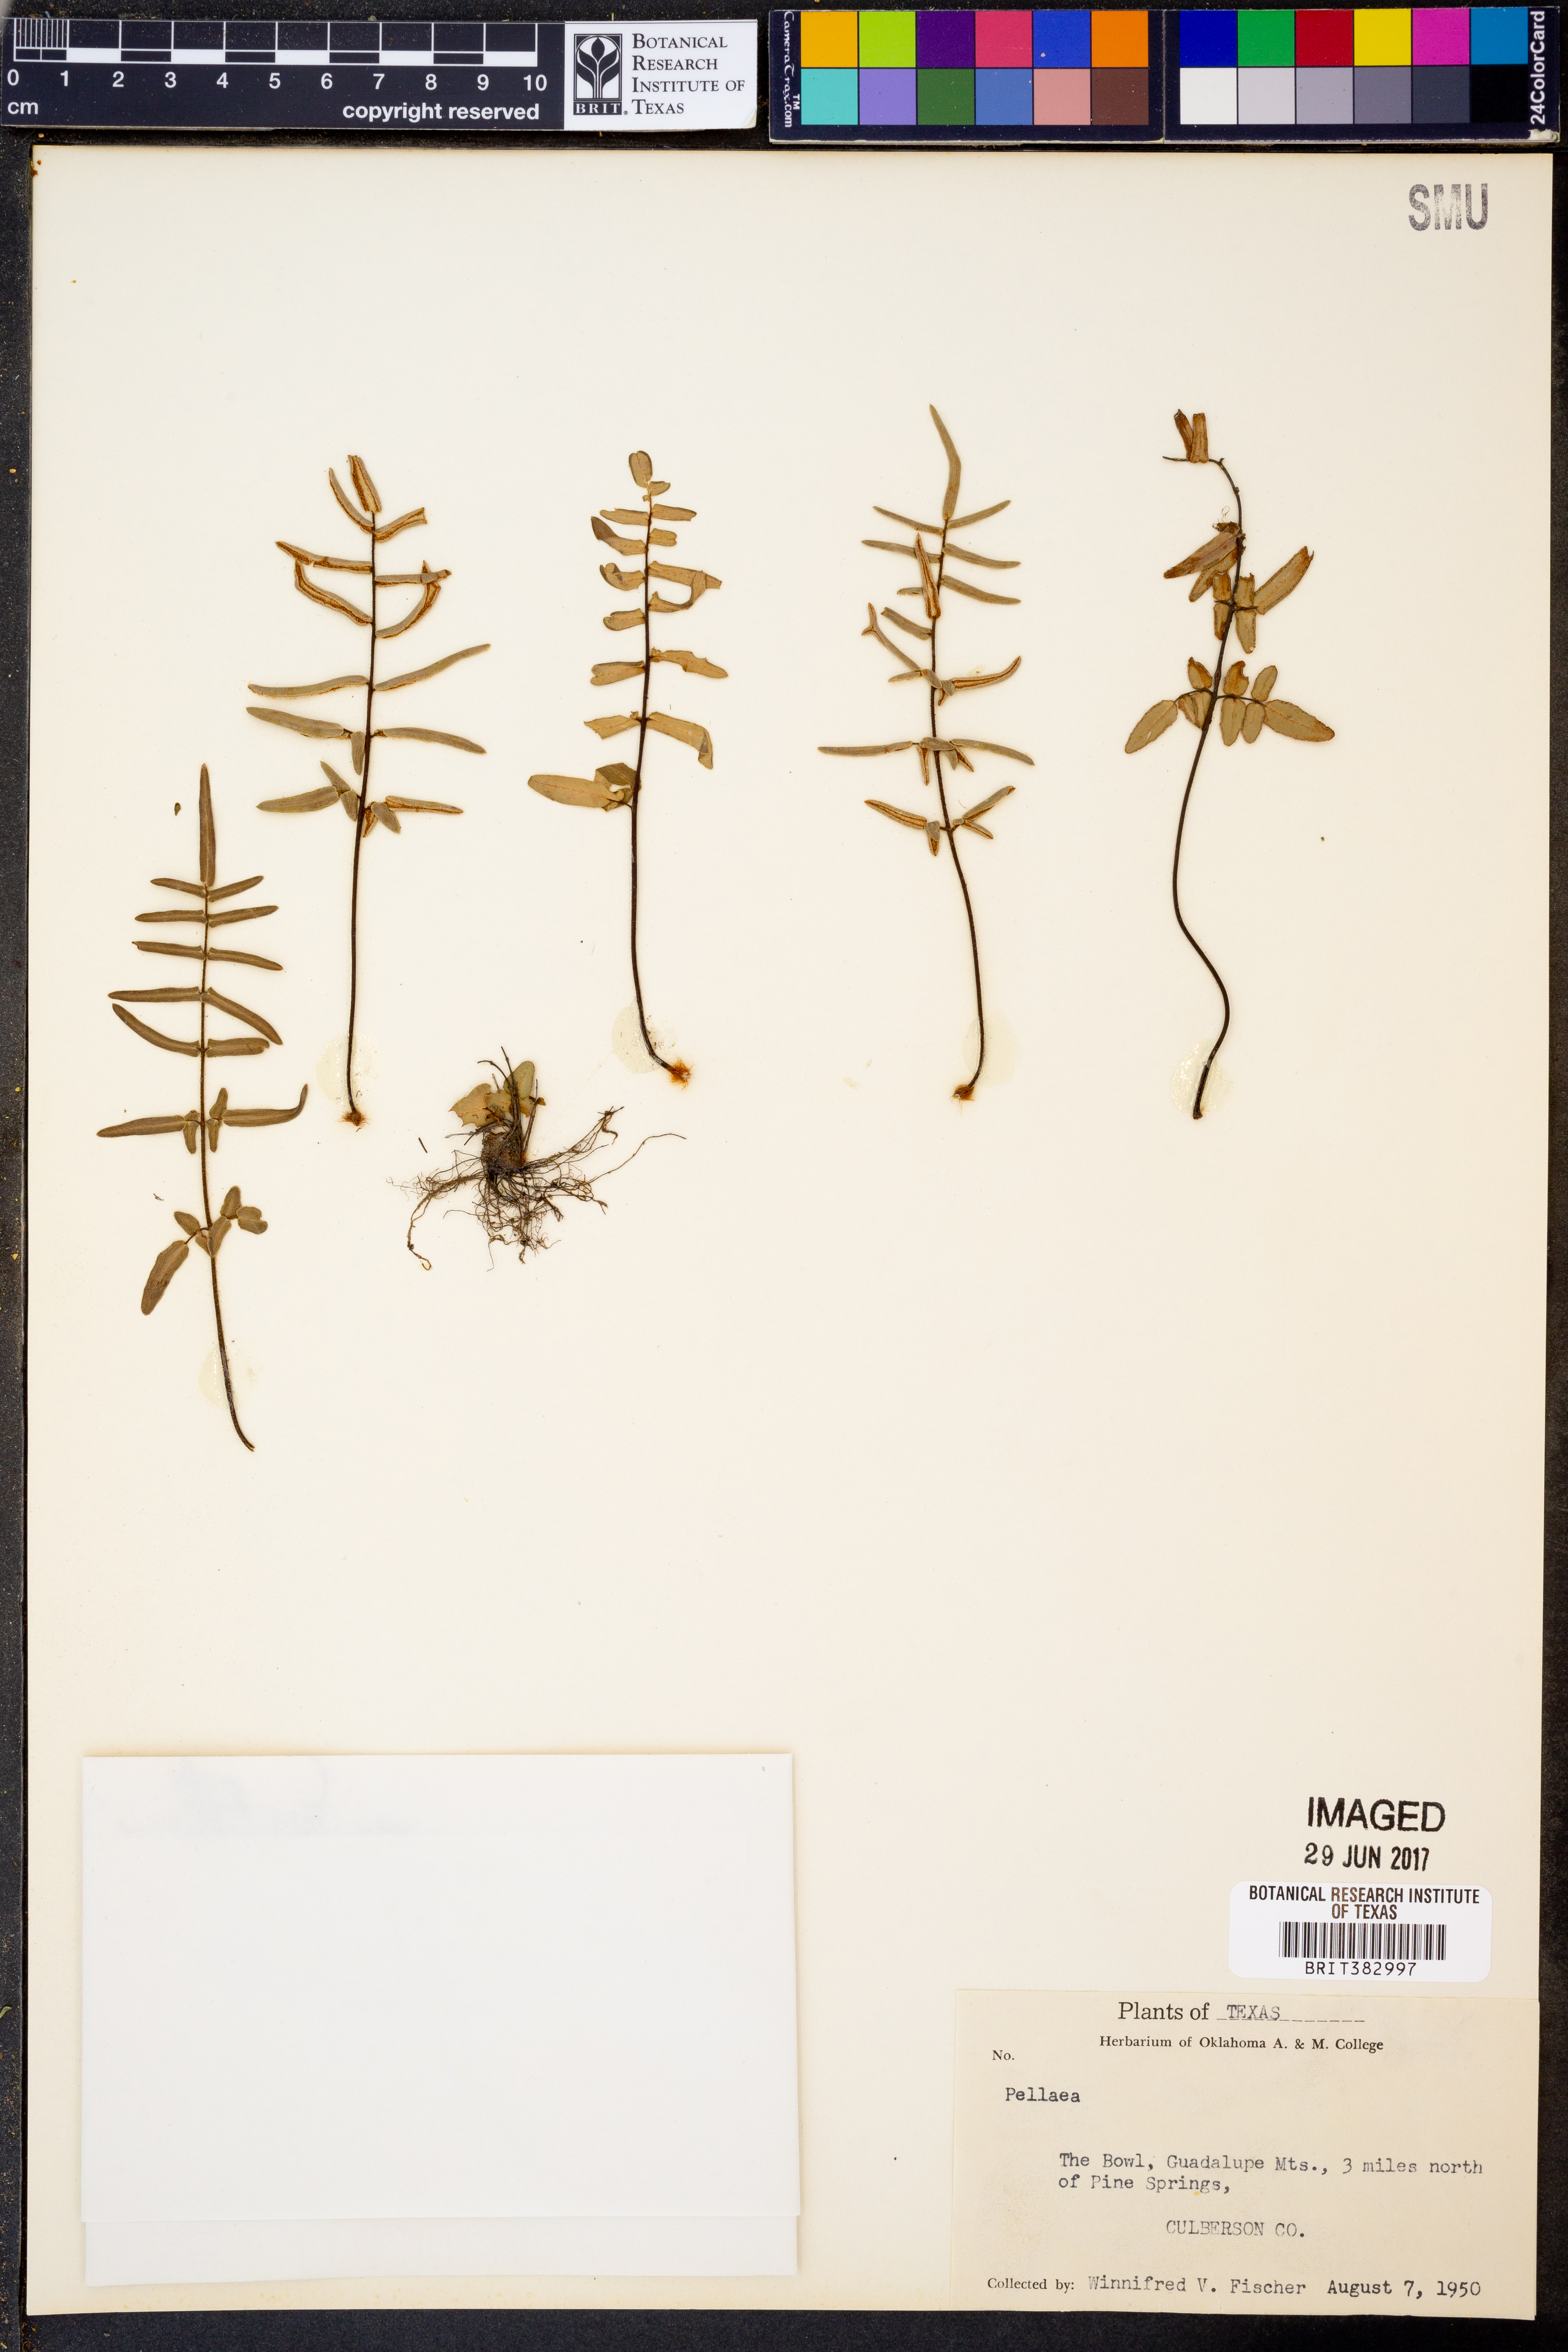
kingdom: Plantae
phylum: Tracheophyta
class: Polypodiopsida
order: Polypodiales
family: Pteridaceae
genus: Pellaea
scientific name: Pellaea
